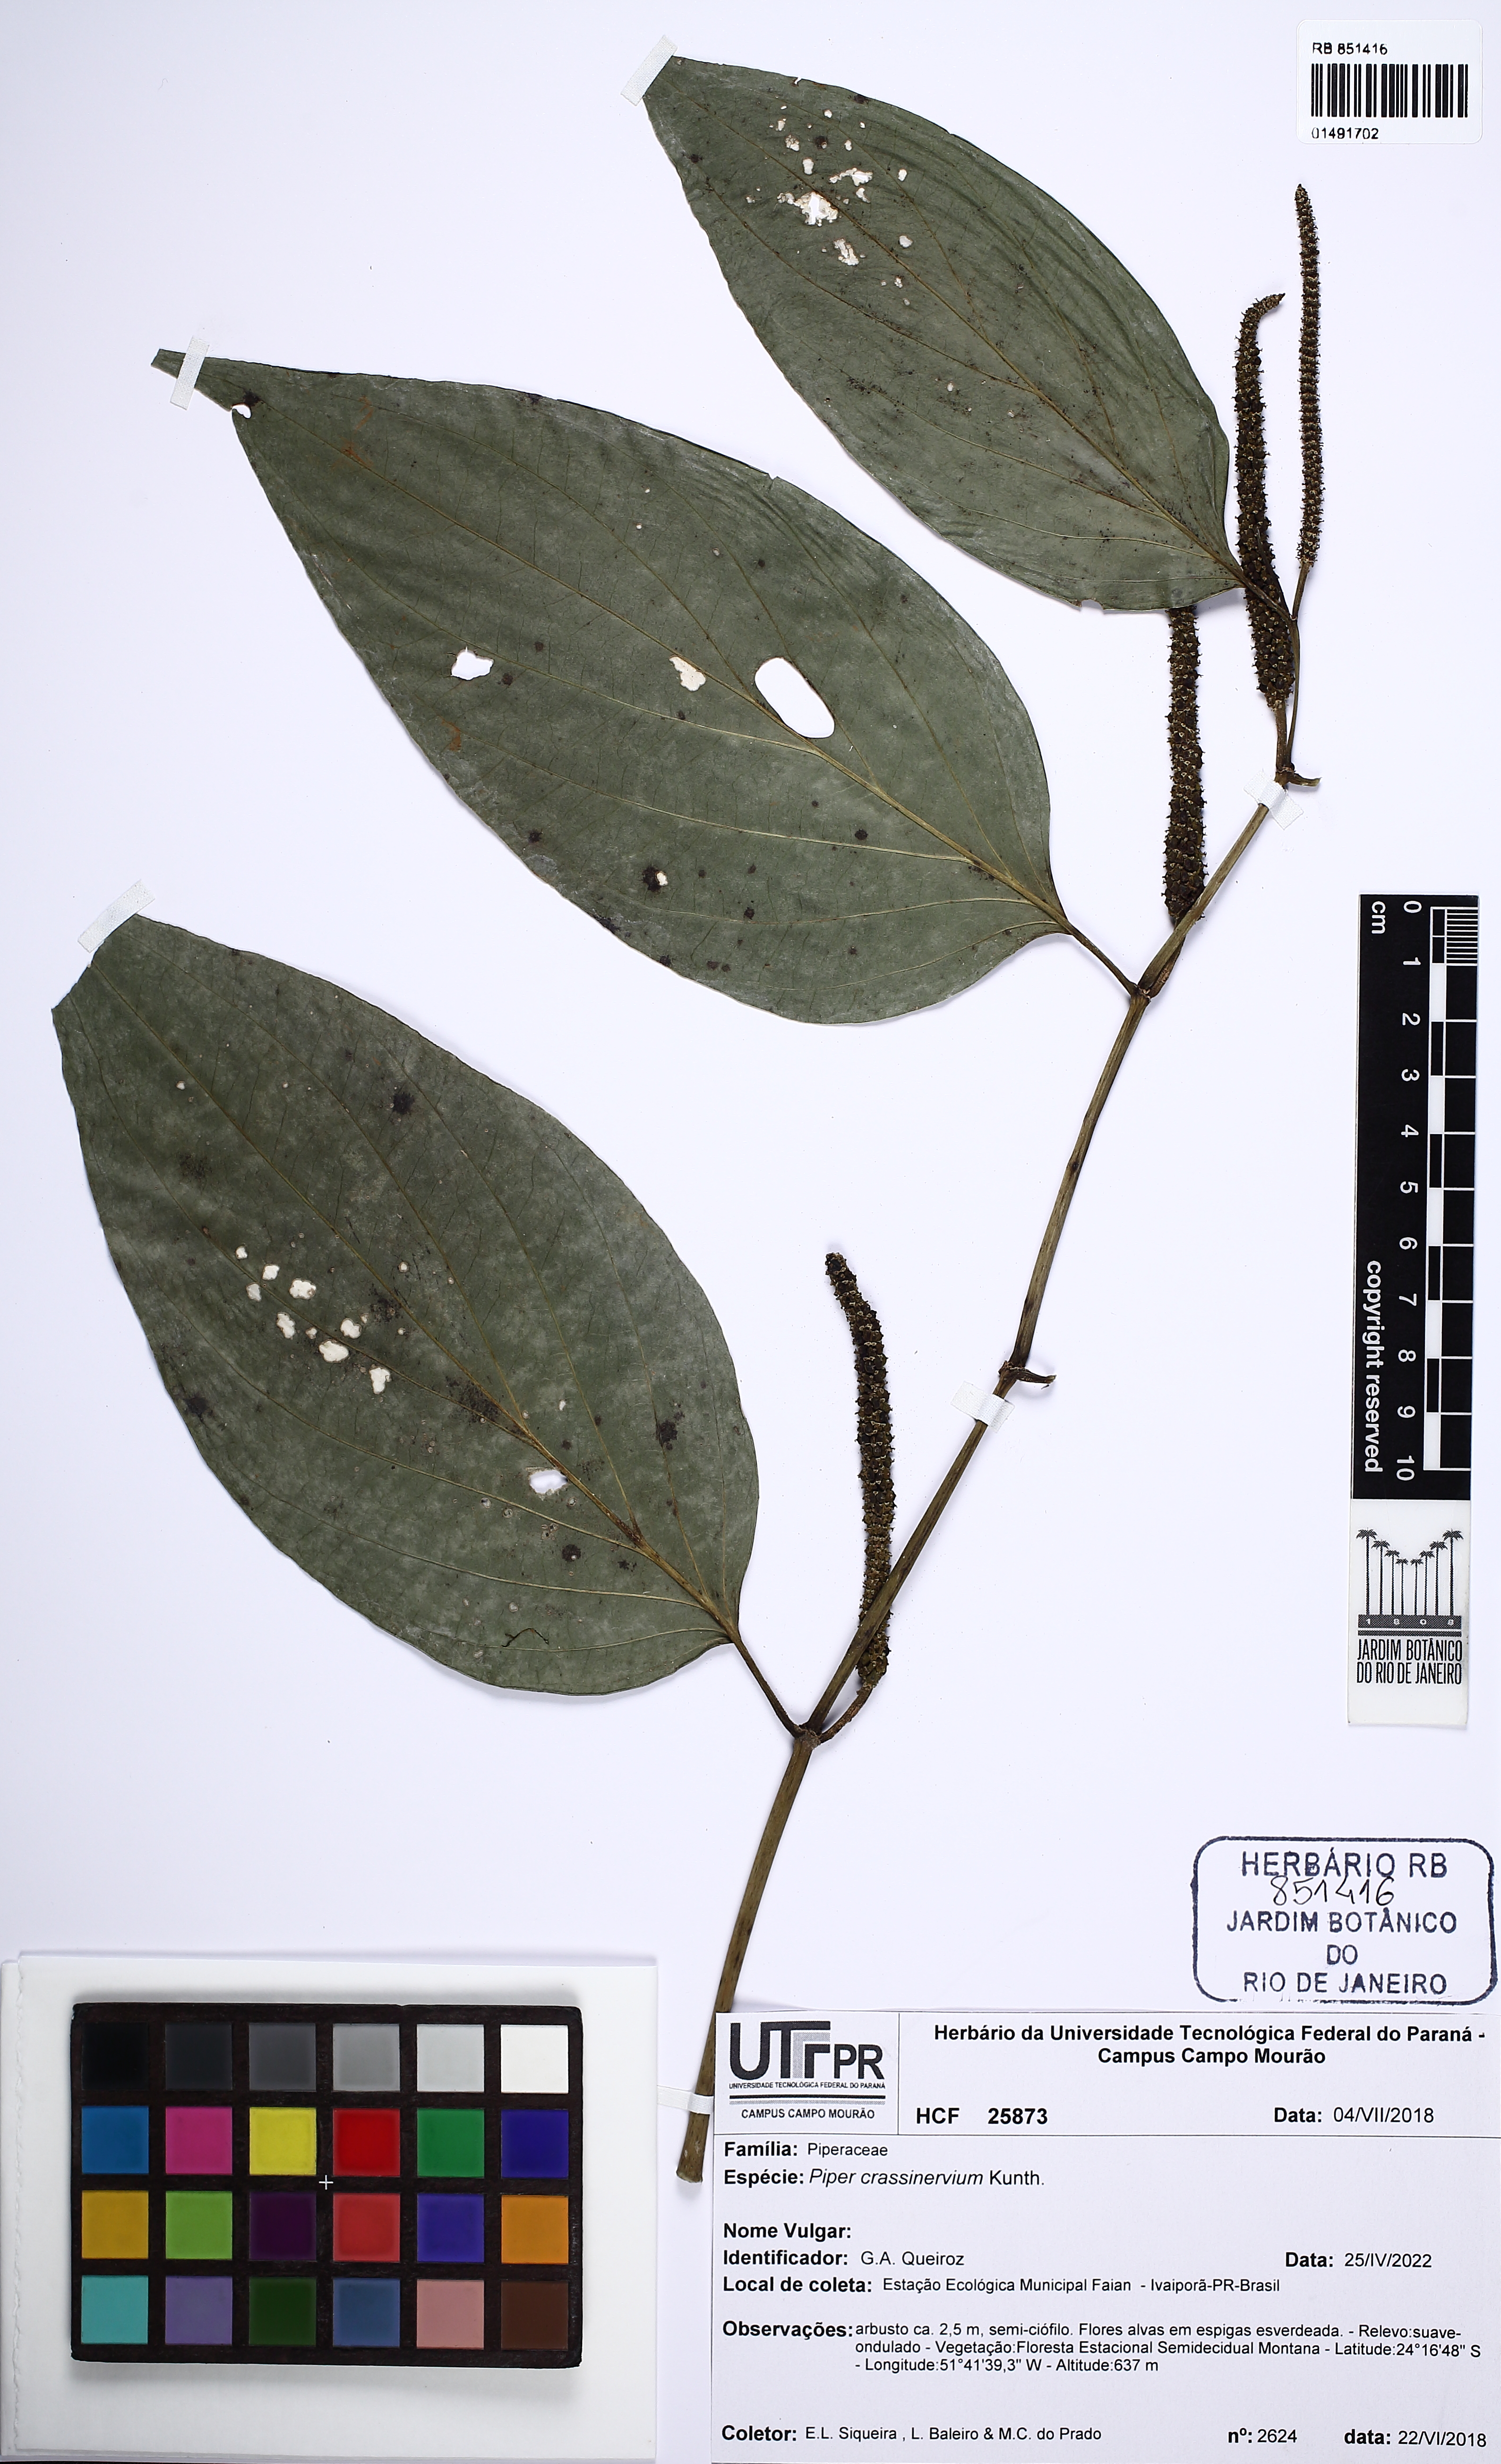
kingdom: Plantae
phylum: Tracheophyta
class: Magnoliopsida
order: Piperales
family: Piperaceae
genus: Piper
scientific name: Piper crassinervium
